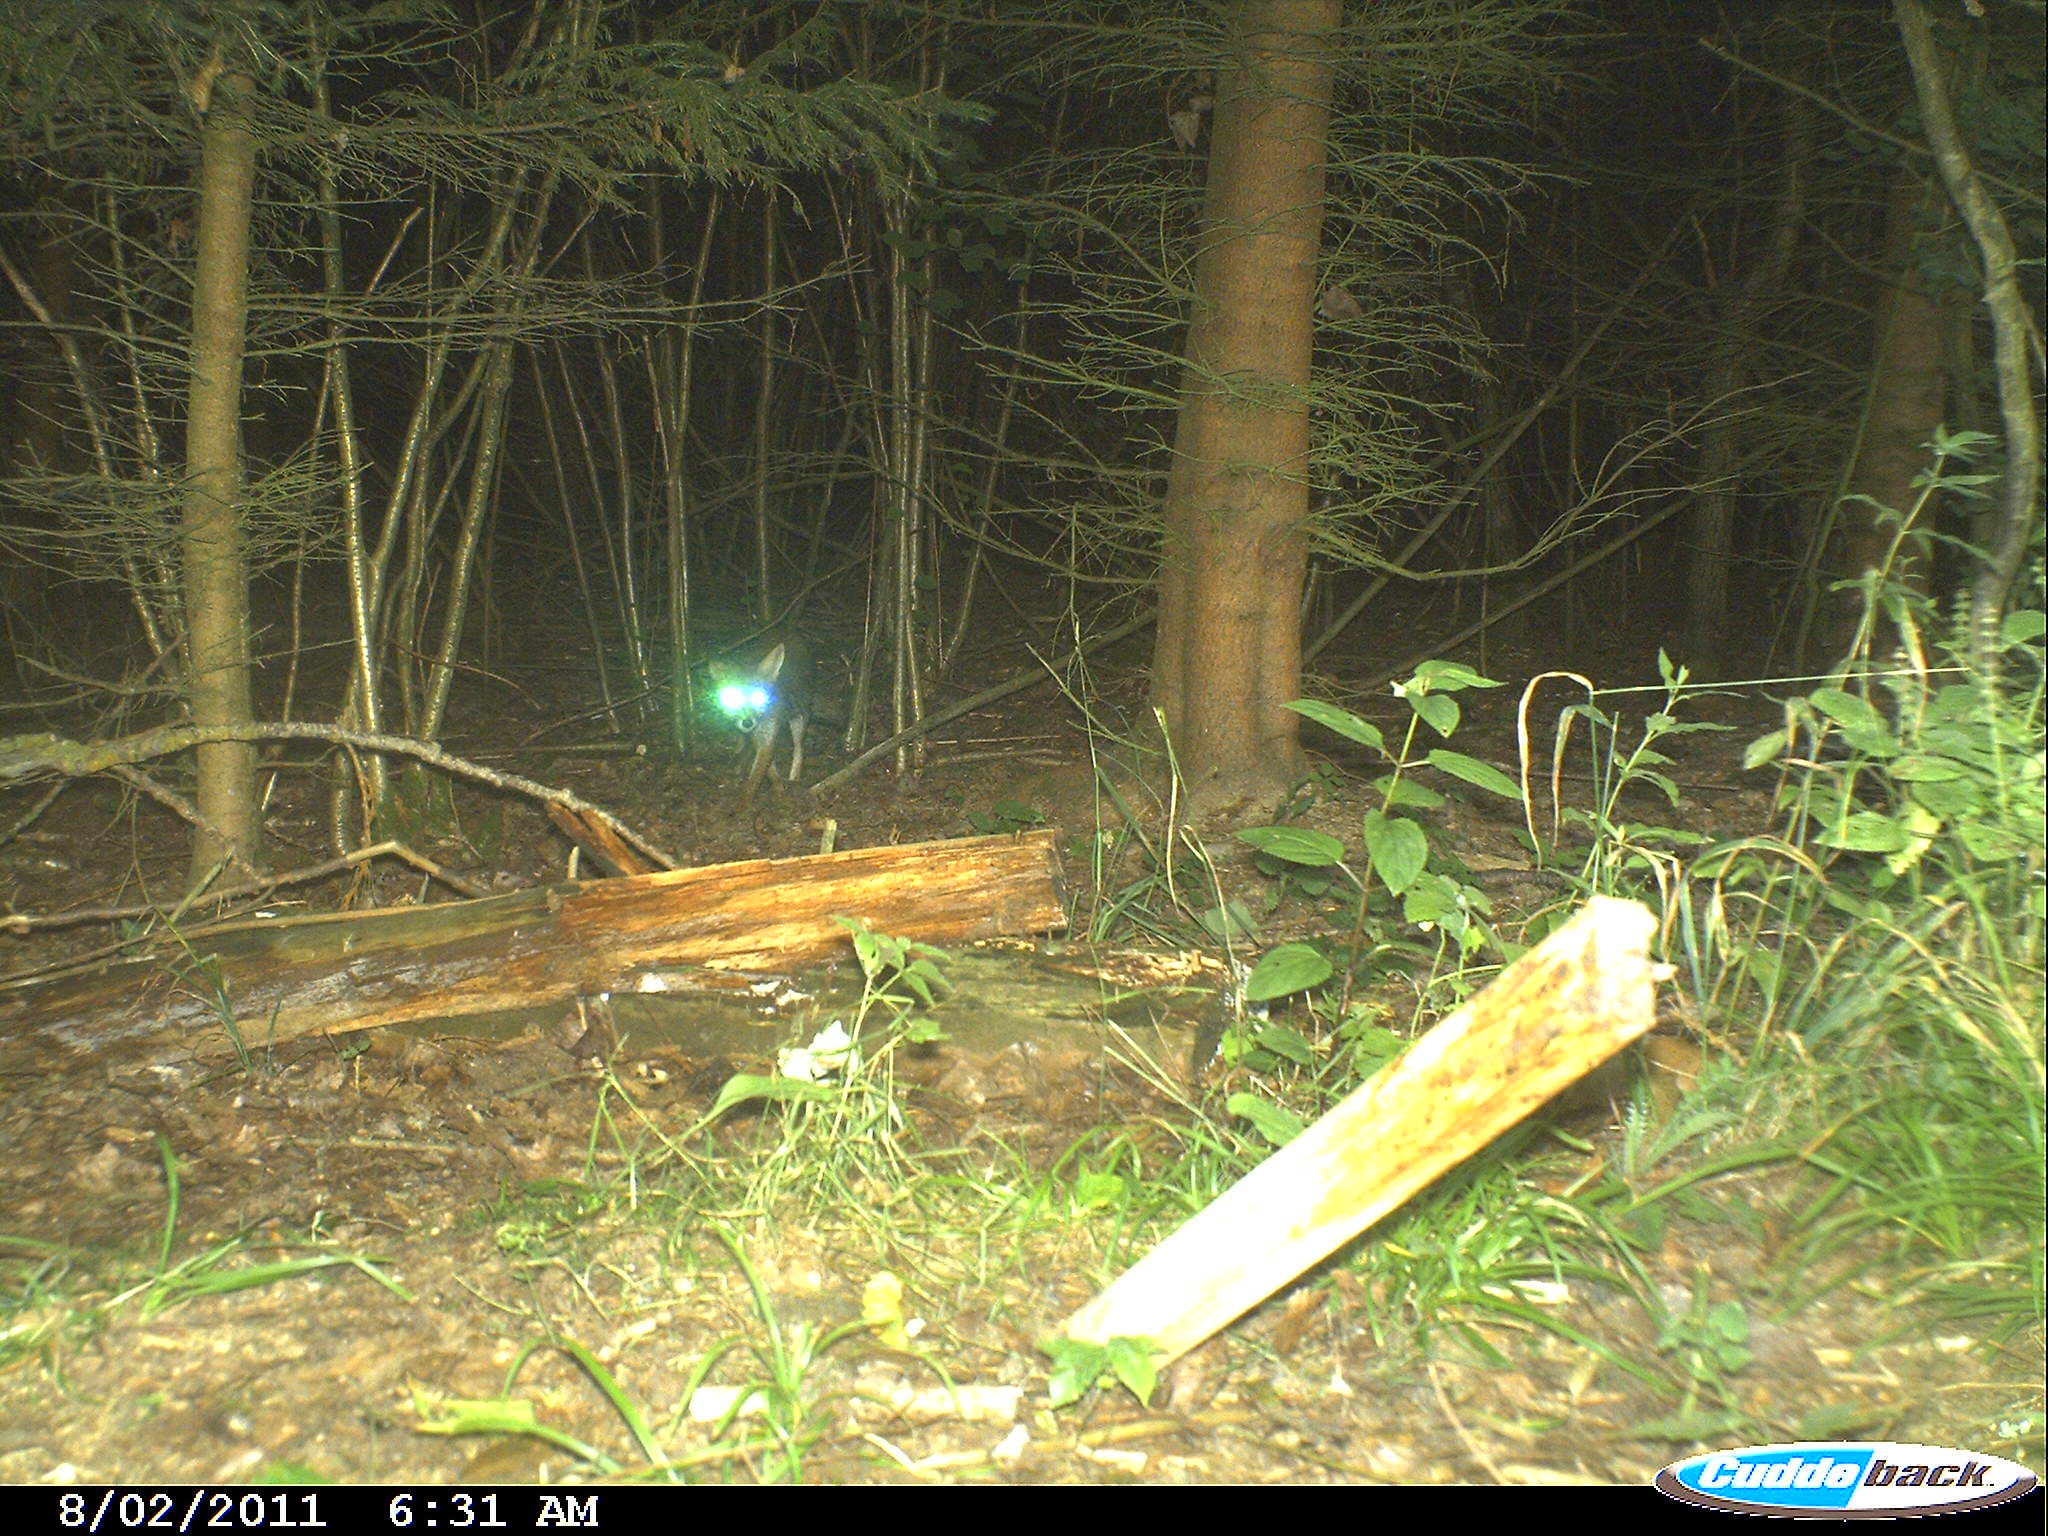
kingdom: Animalia
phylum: Chordata
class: Mammalia
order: Carnivora
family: Canidae
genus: Vulpes
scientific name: Vulpes vulpes
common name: Red fox
